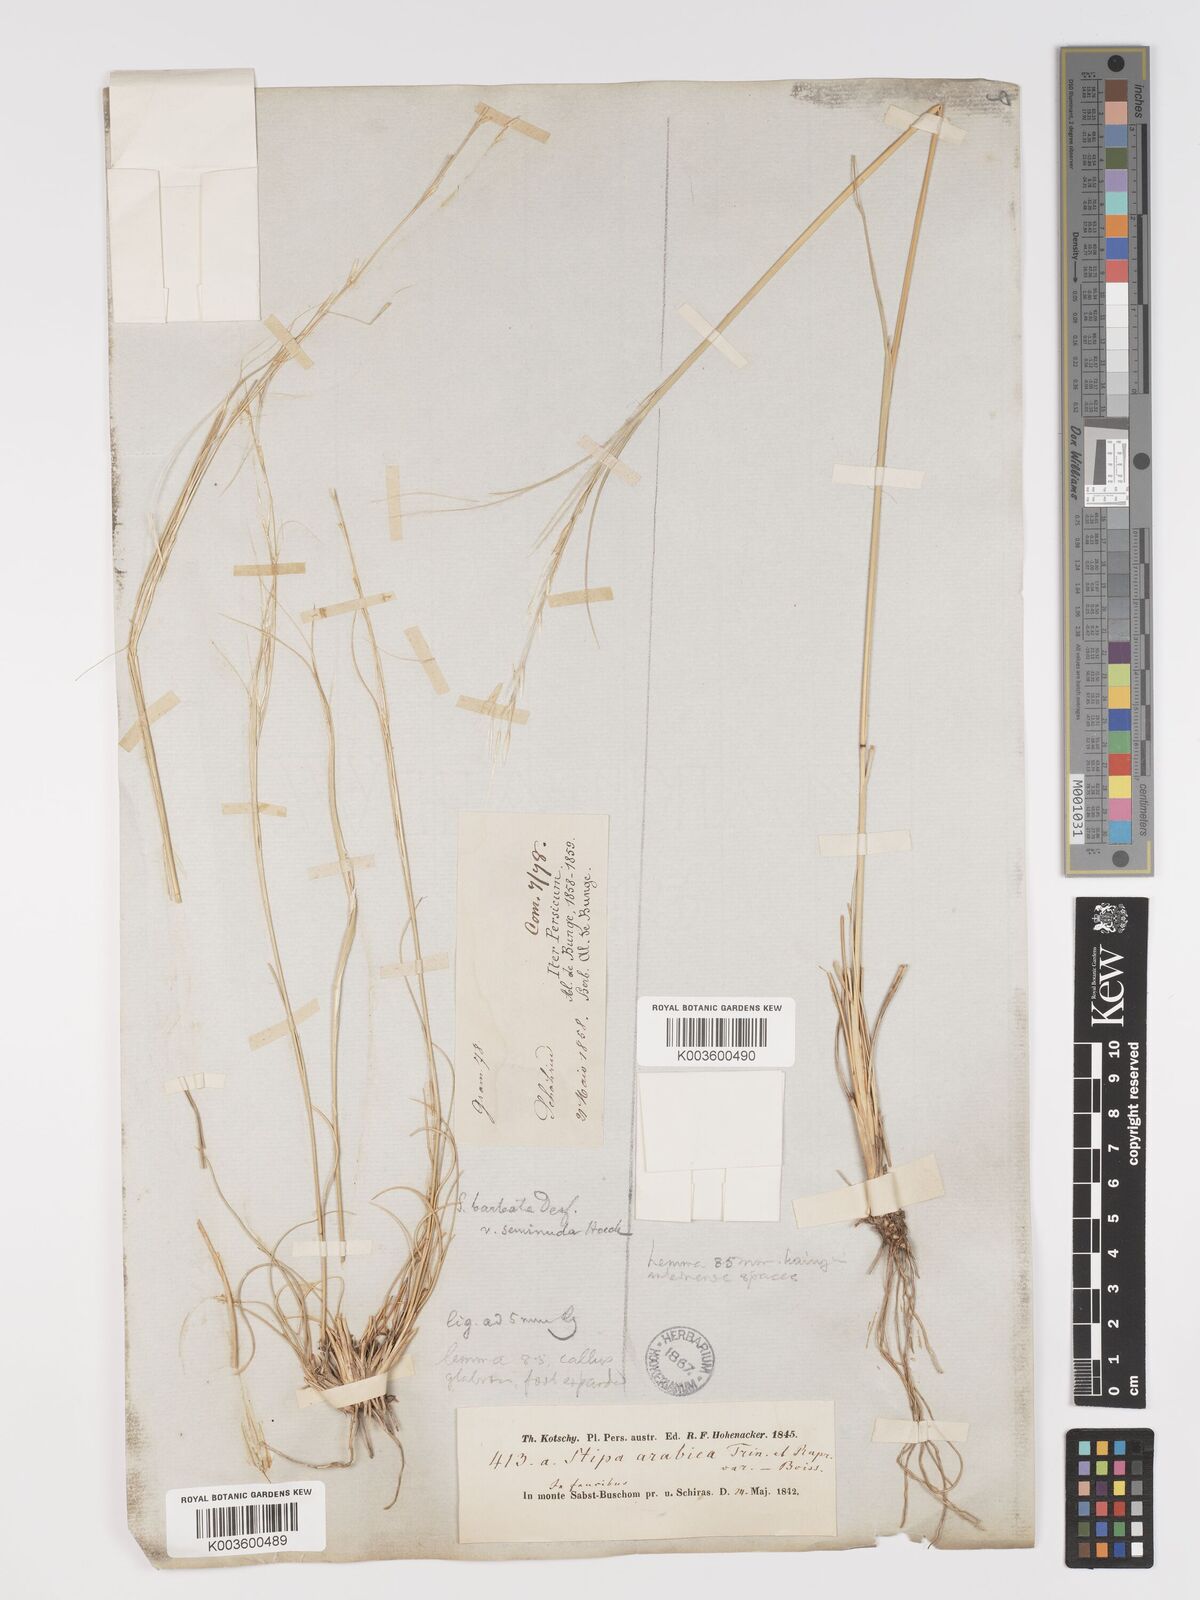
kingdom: Plantae
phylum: Tracheophyta
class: Liliopsida
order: Poales
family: Poaceae
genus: Stipa
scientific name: Stipa arabica
